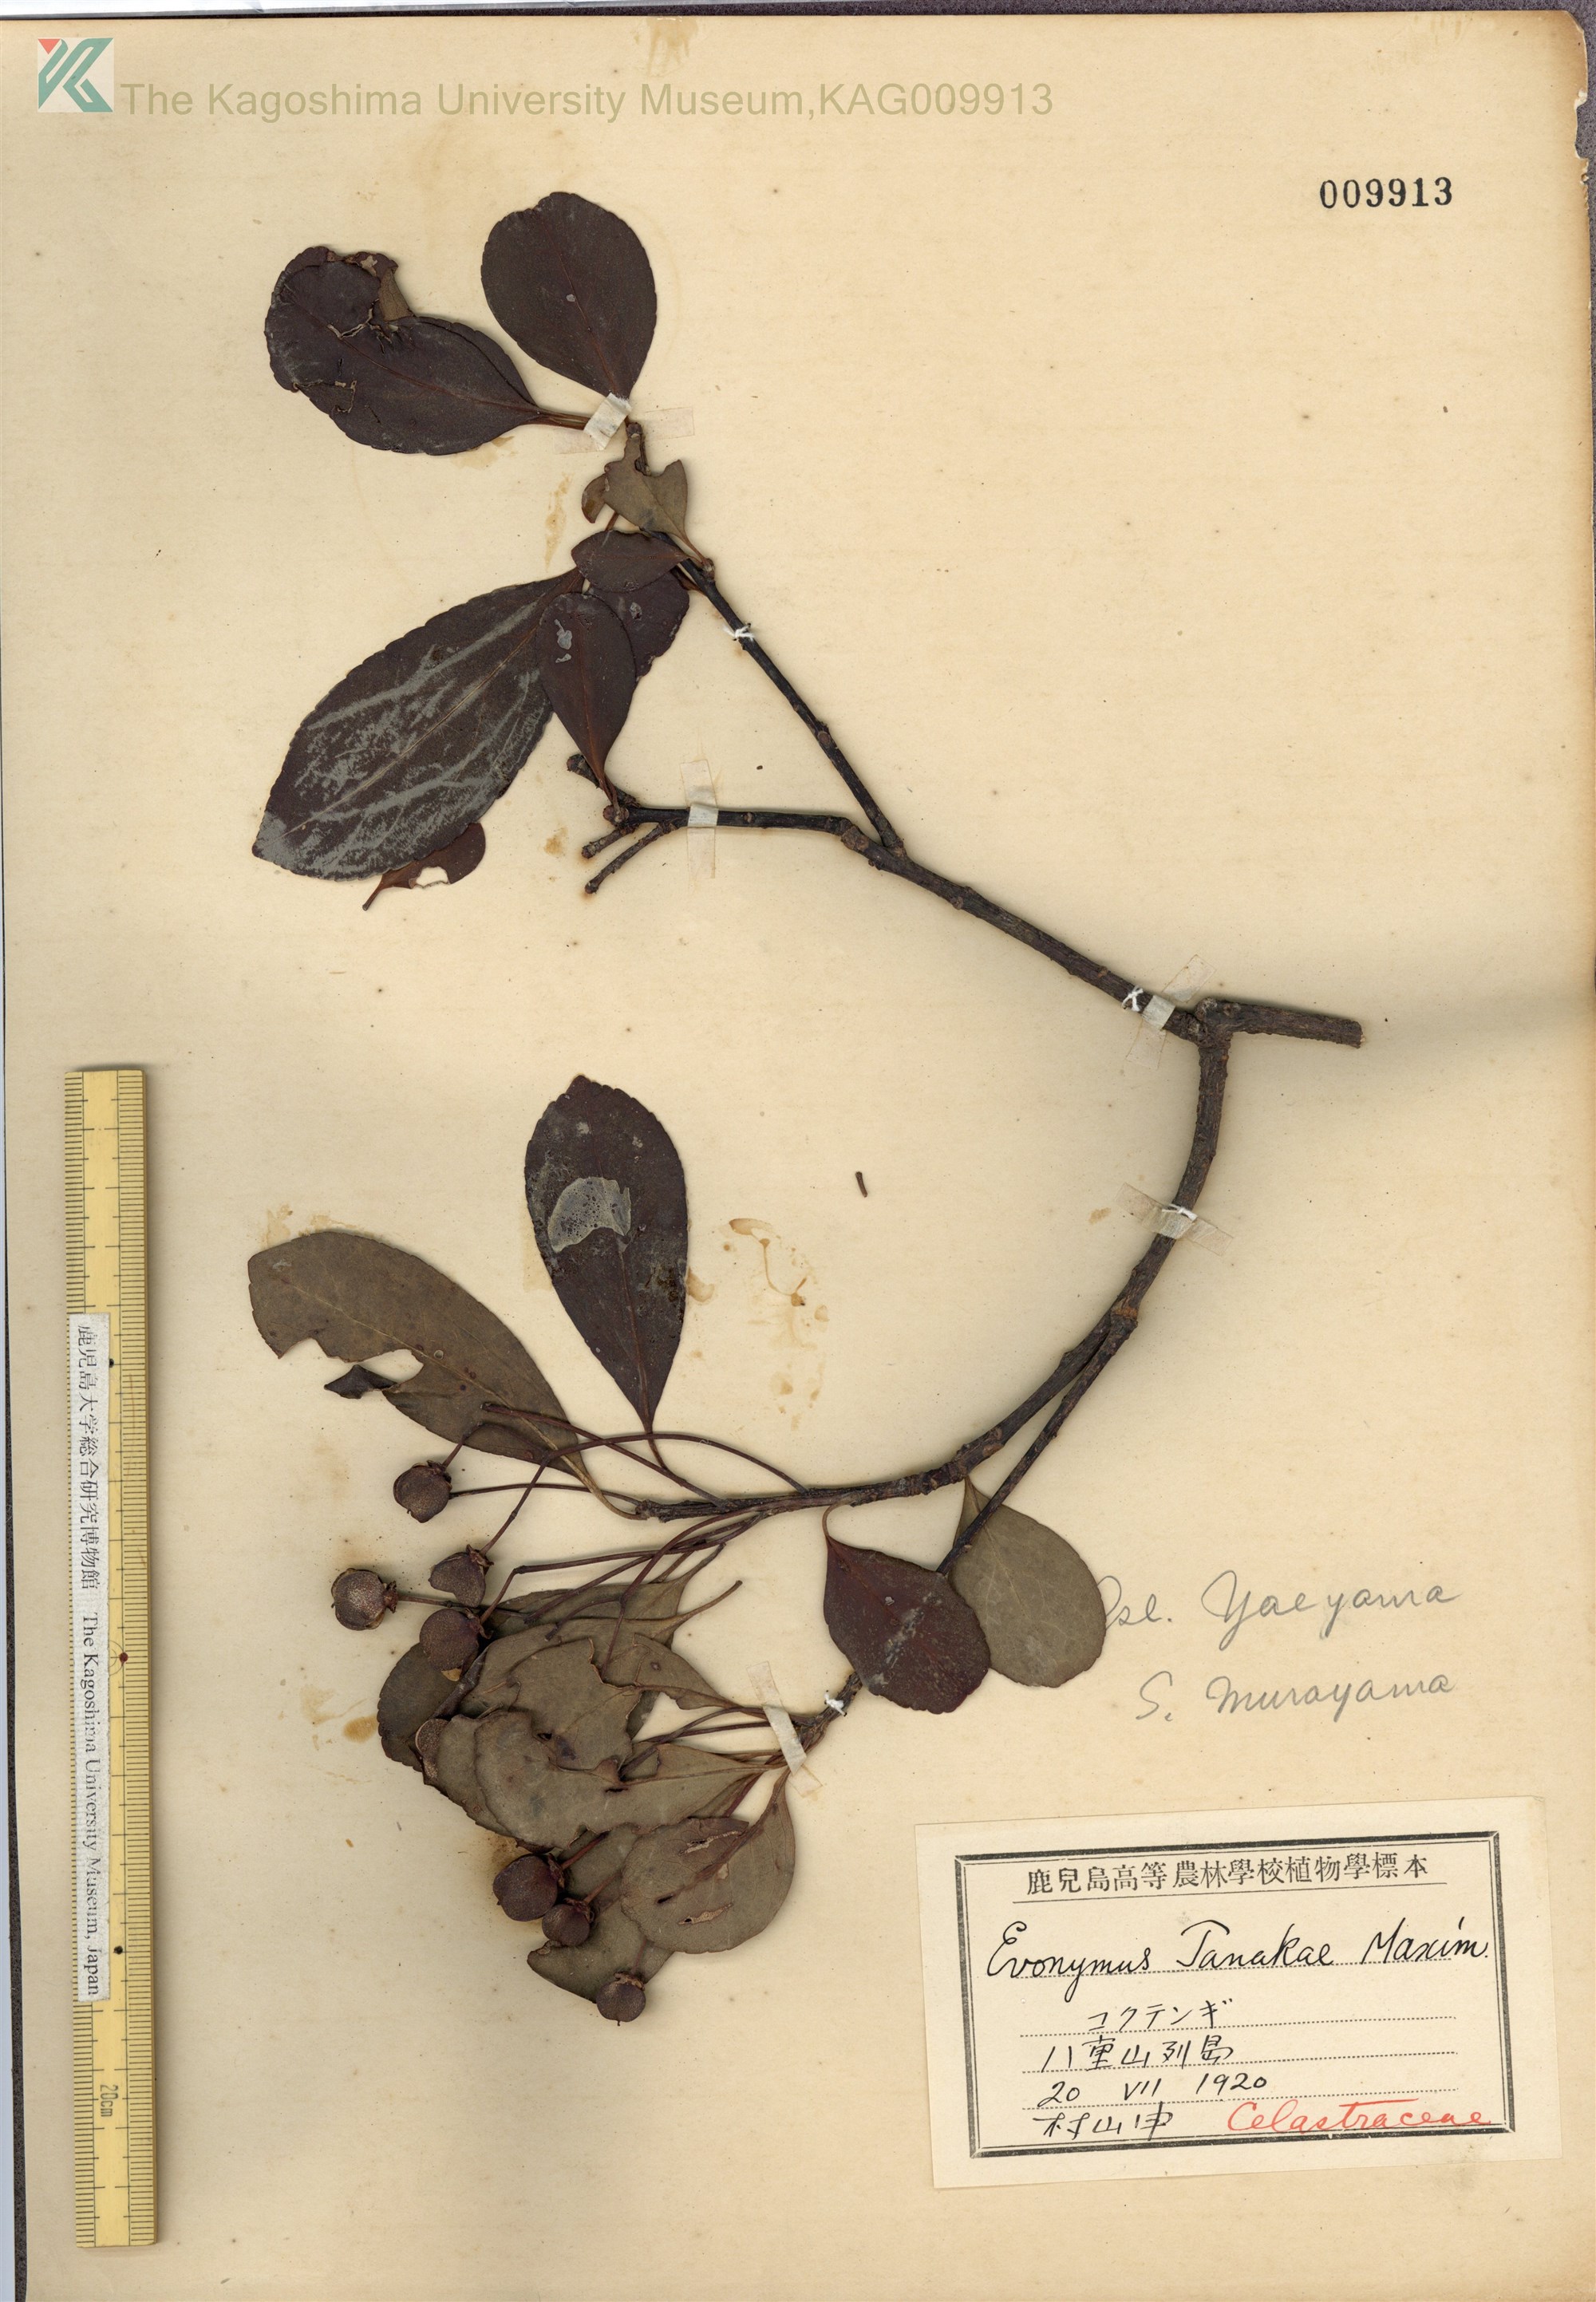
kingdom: Plantae
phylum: Tracheophyta
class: Magnoliopsida
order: Celastrales
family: Celastraceae
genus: Euonymus
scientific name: Euonymus carnosus
